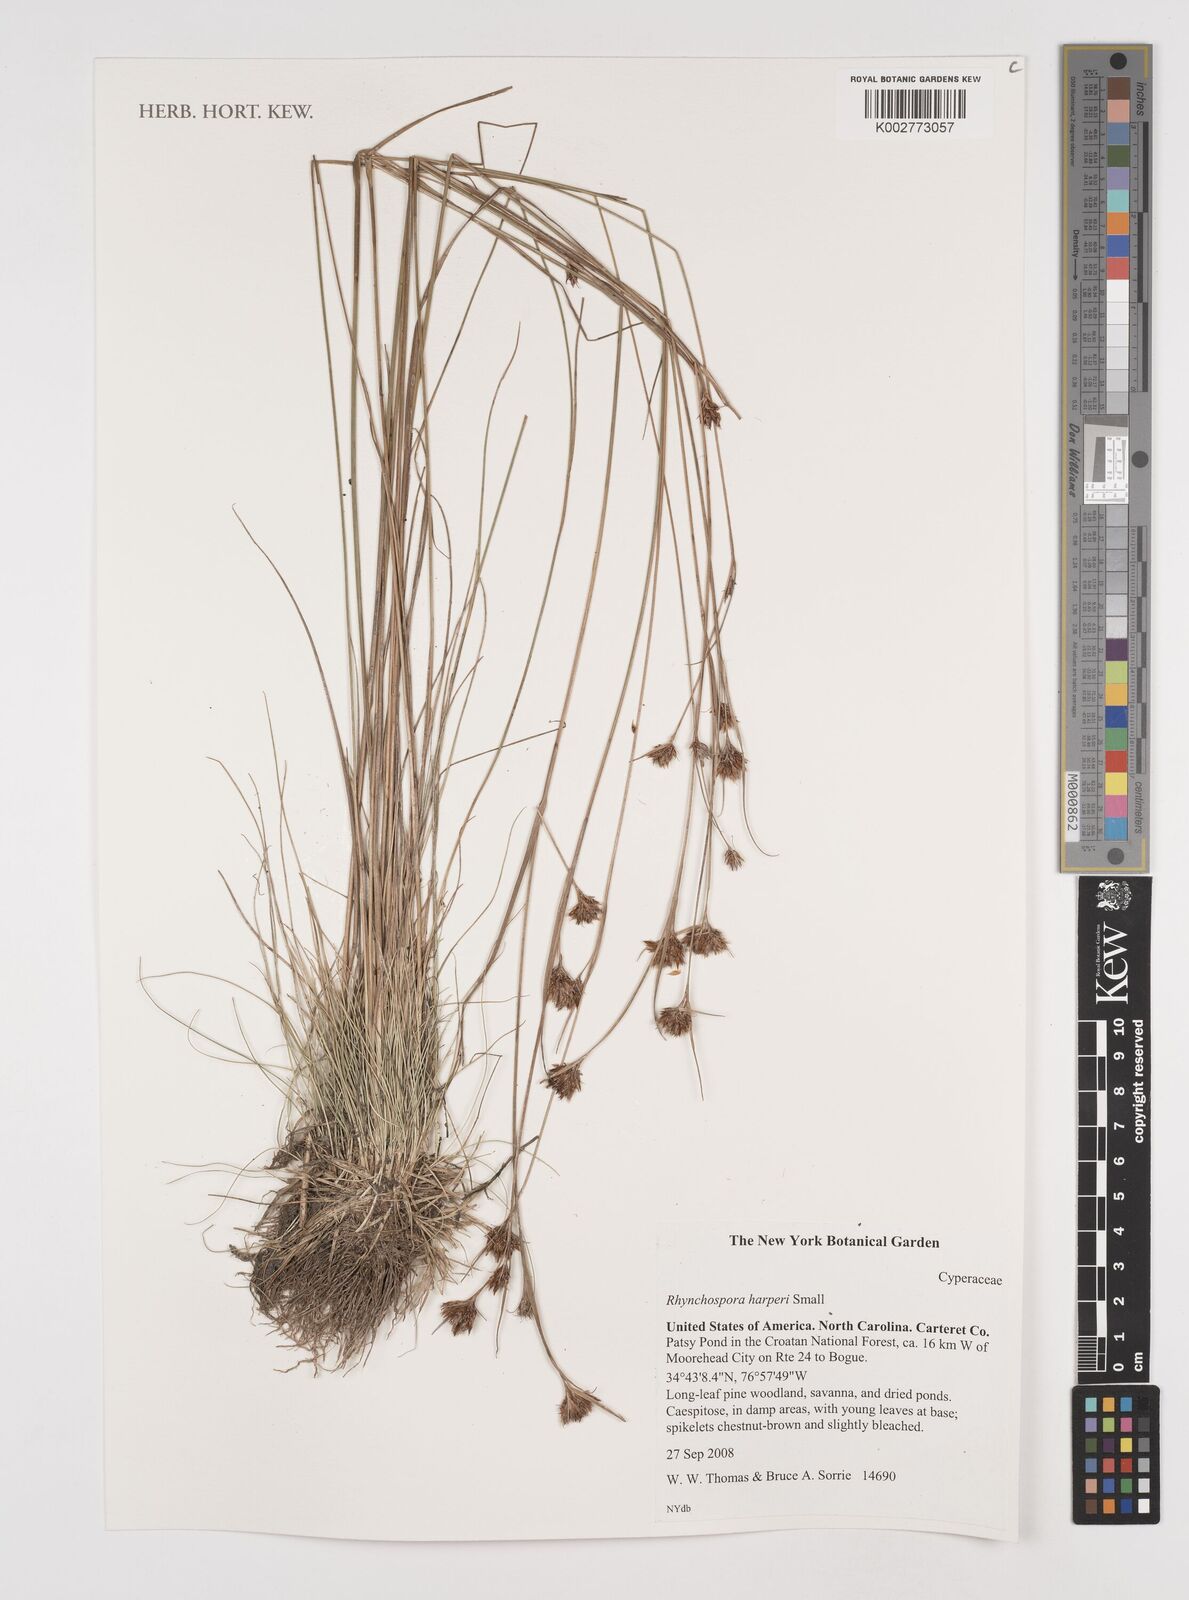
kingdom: Plantae
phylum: Tracheophyta
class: Liliopsida
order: Poales
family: Cyperaceae
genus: Rhynchospora
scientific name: Rhynchospora harperi
